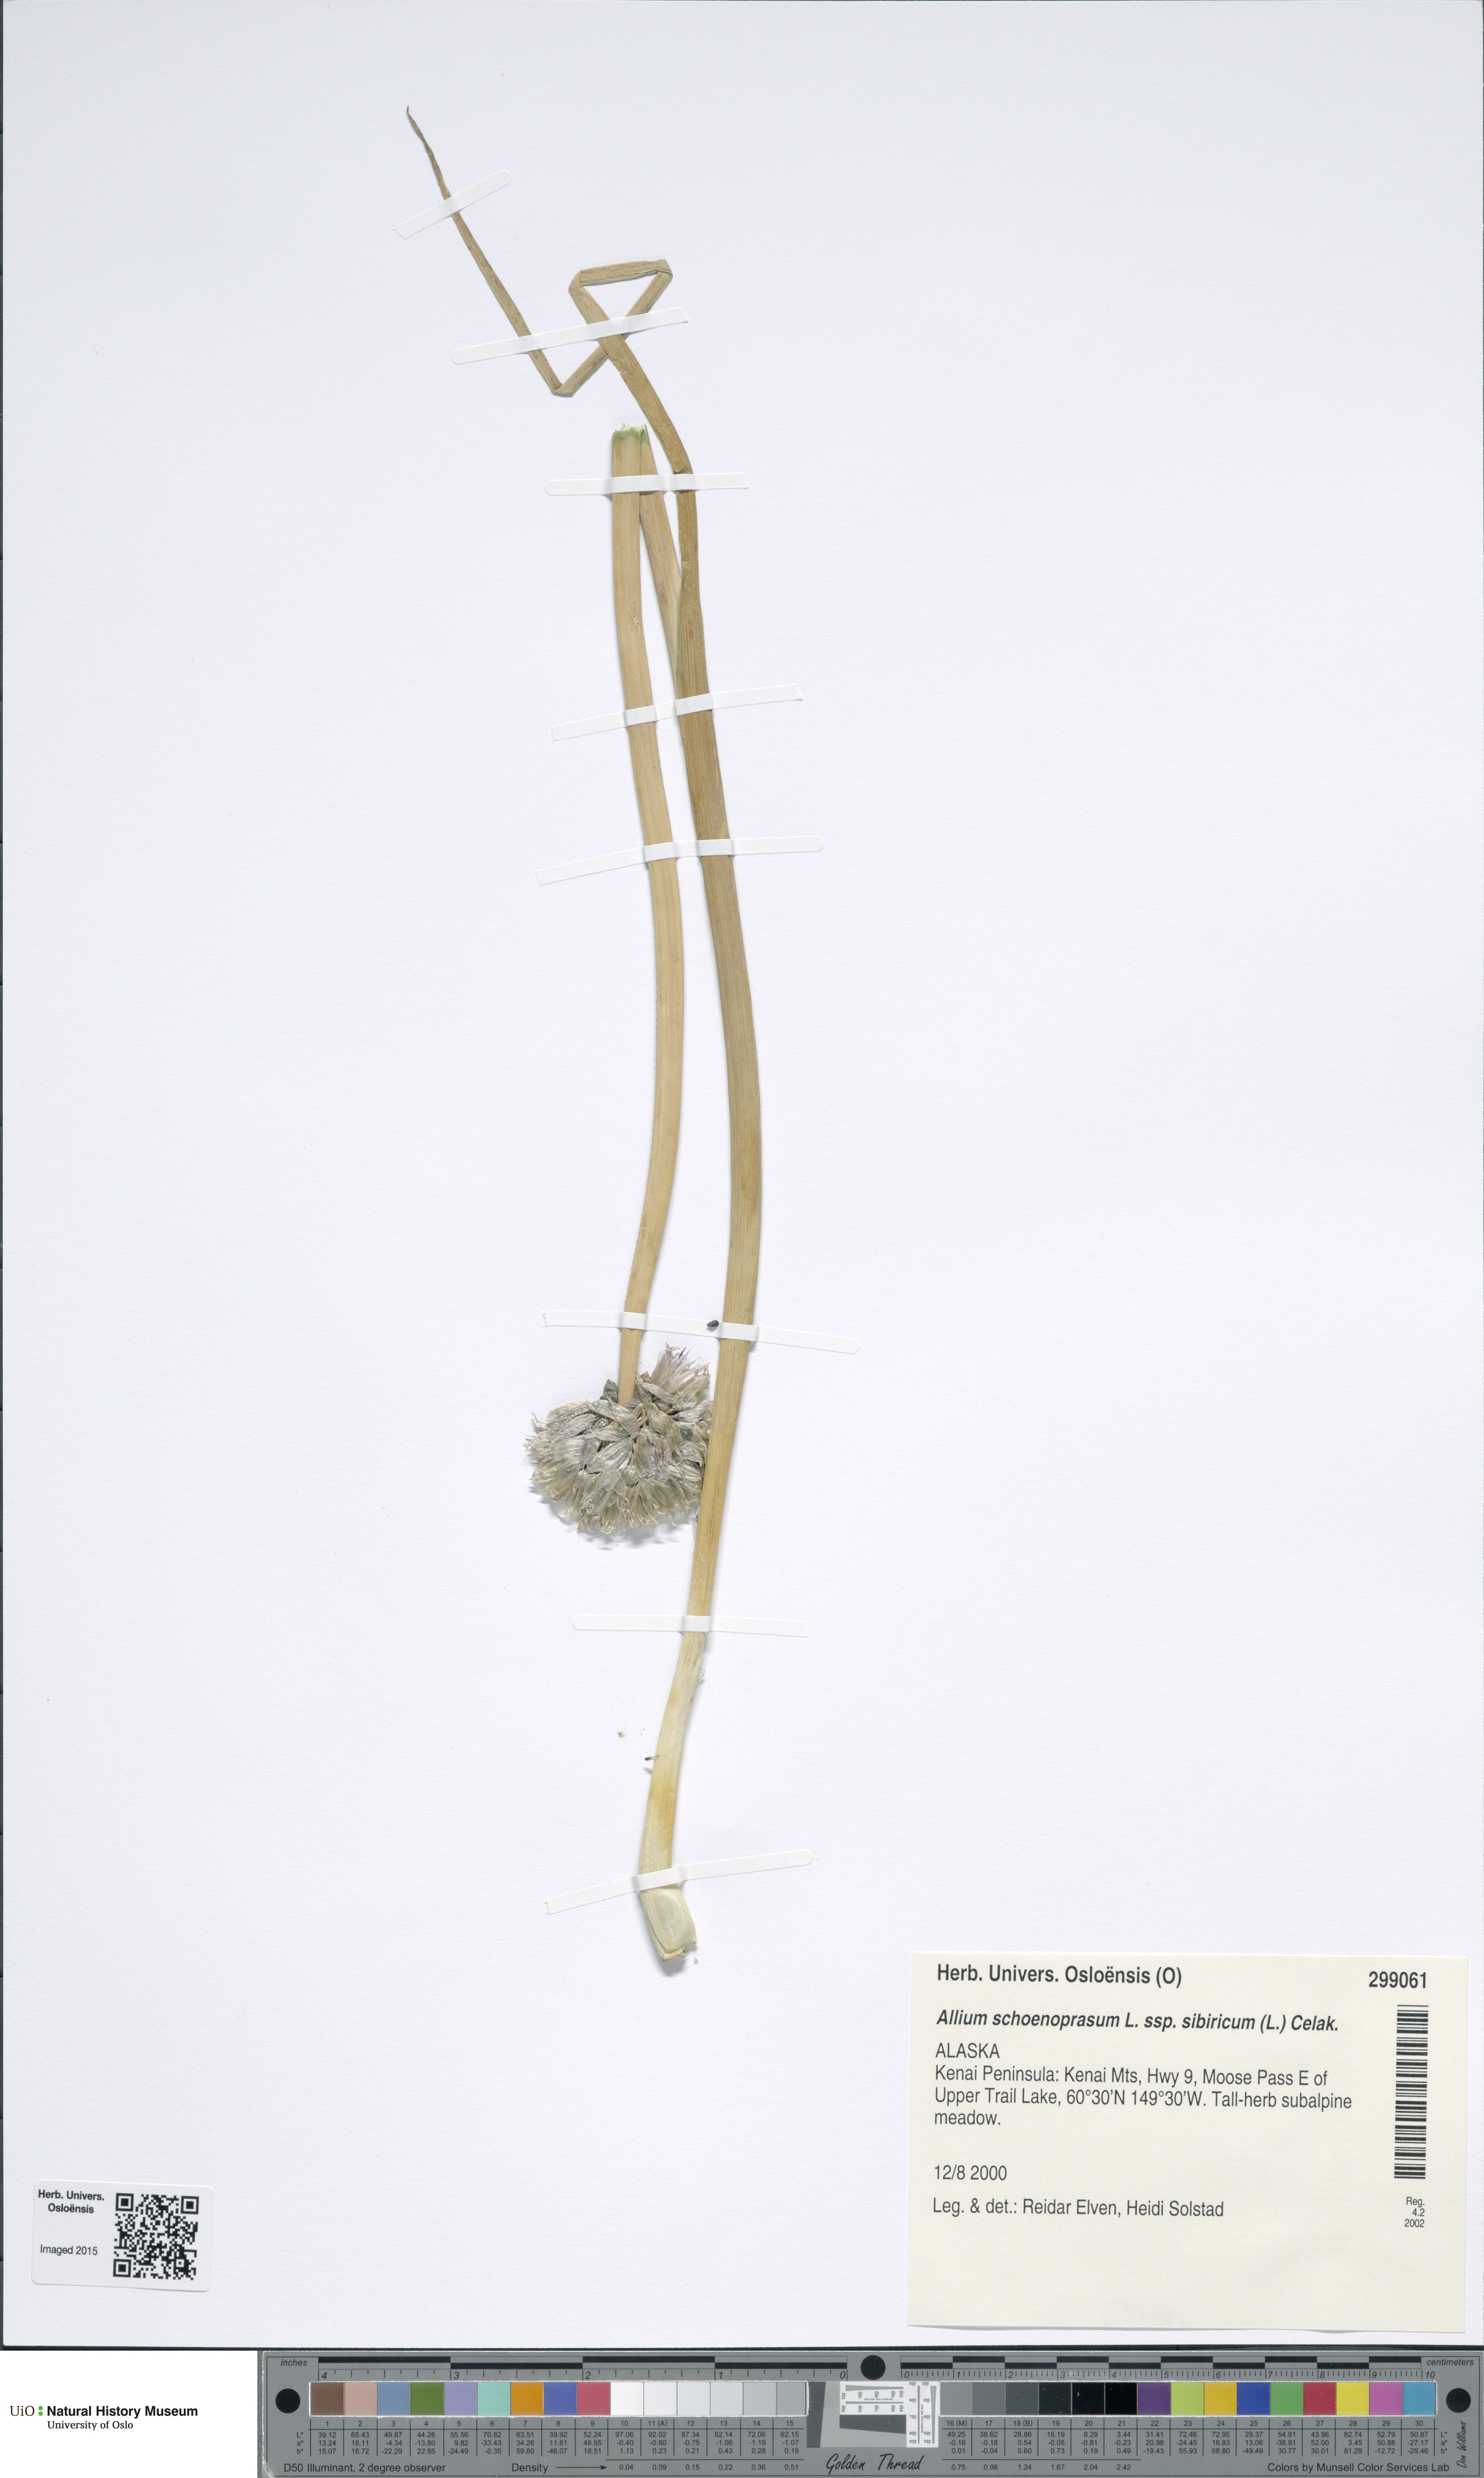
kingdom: Plantae
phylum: Tracheophyta
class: Liliopsida
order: Asparagales
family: Amaryllidaceae
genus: Allium
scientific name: Allium schoenoprasum
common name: Chives
